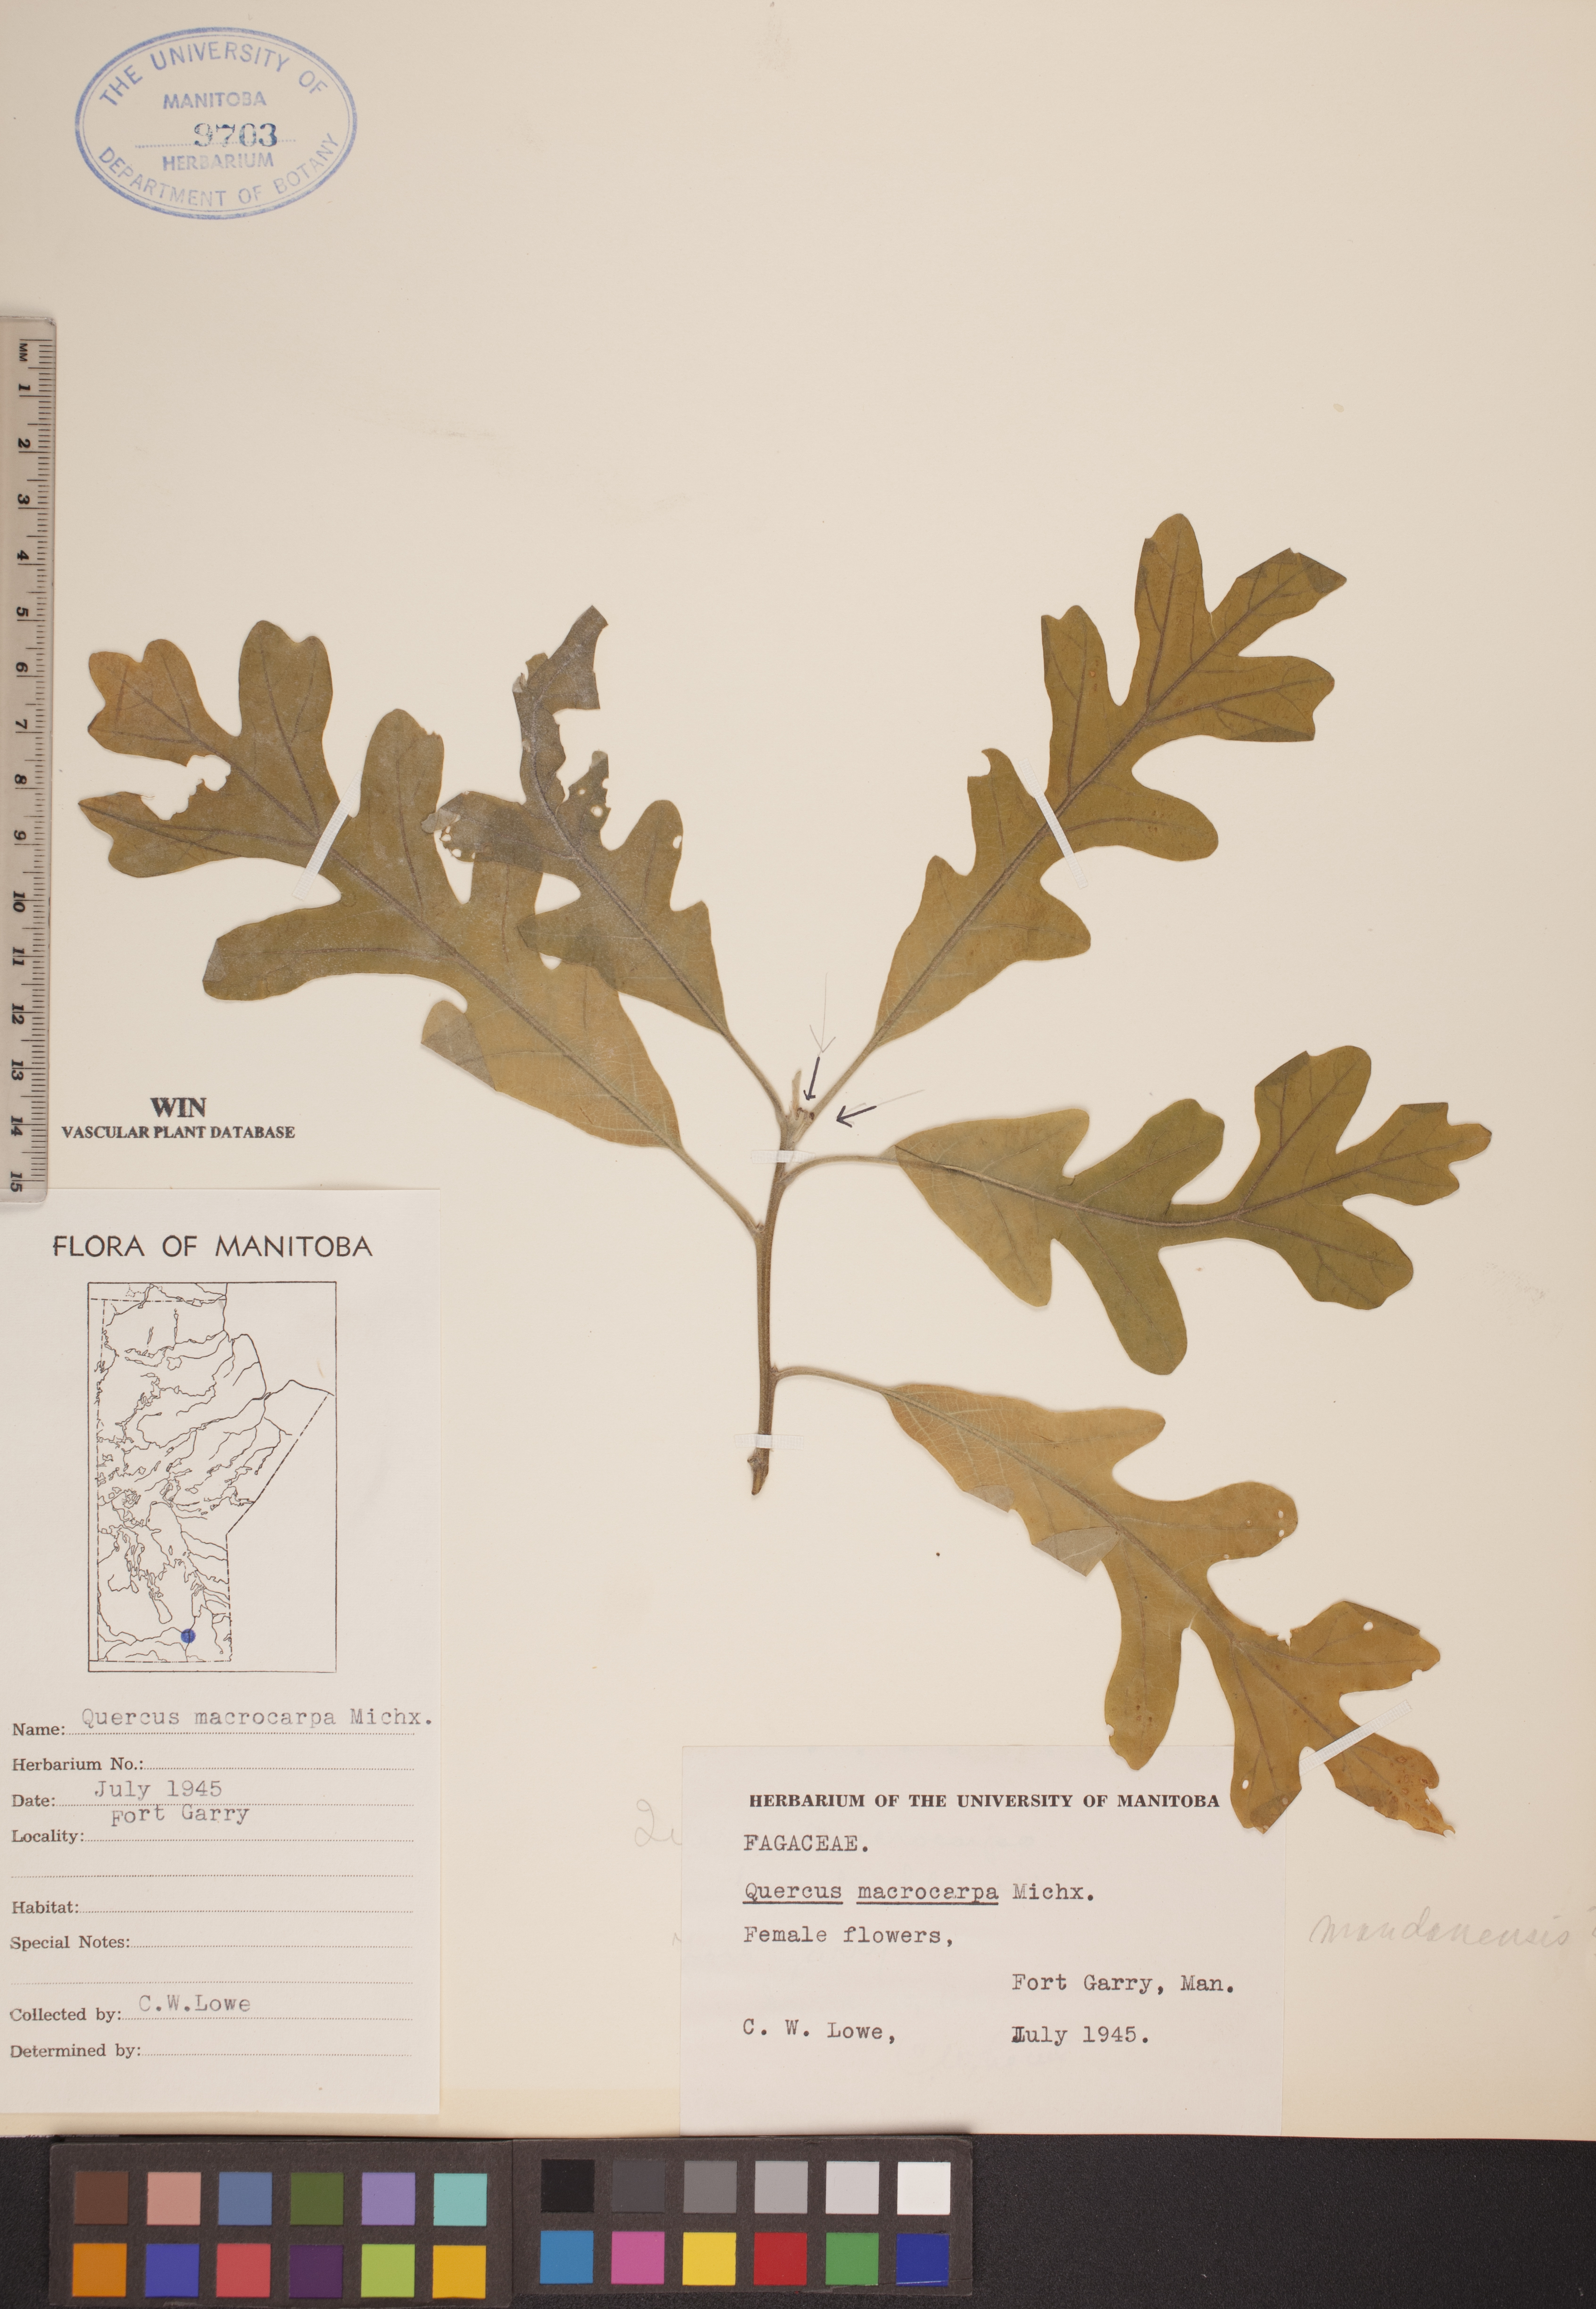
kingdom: Plantae
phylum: Tracheophyta
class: Magnoliopsida
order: Fagales
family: Fagaceae
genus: Quercus
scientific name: Quercus macrocarpa
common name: Bur oak
